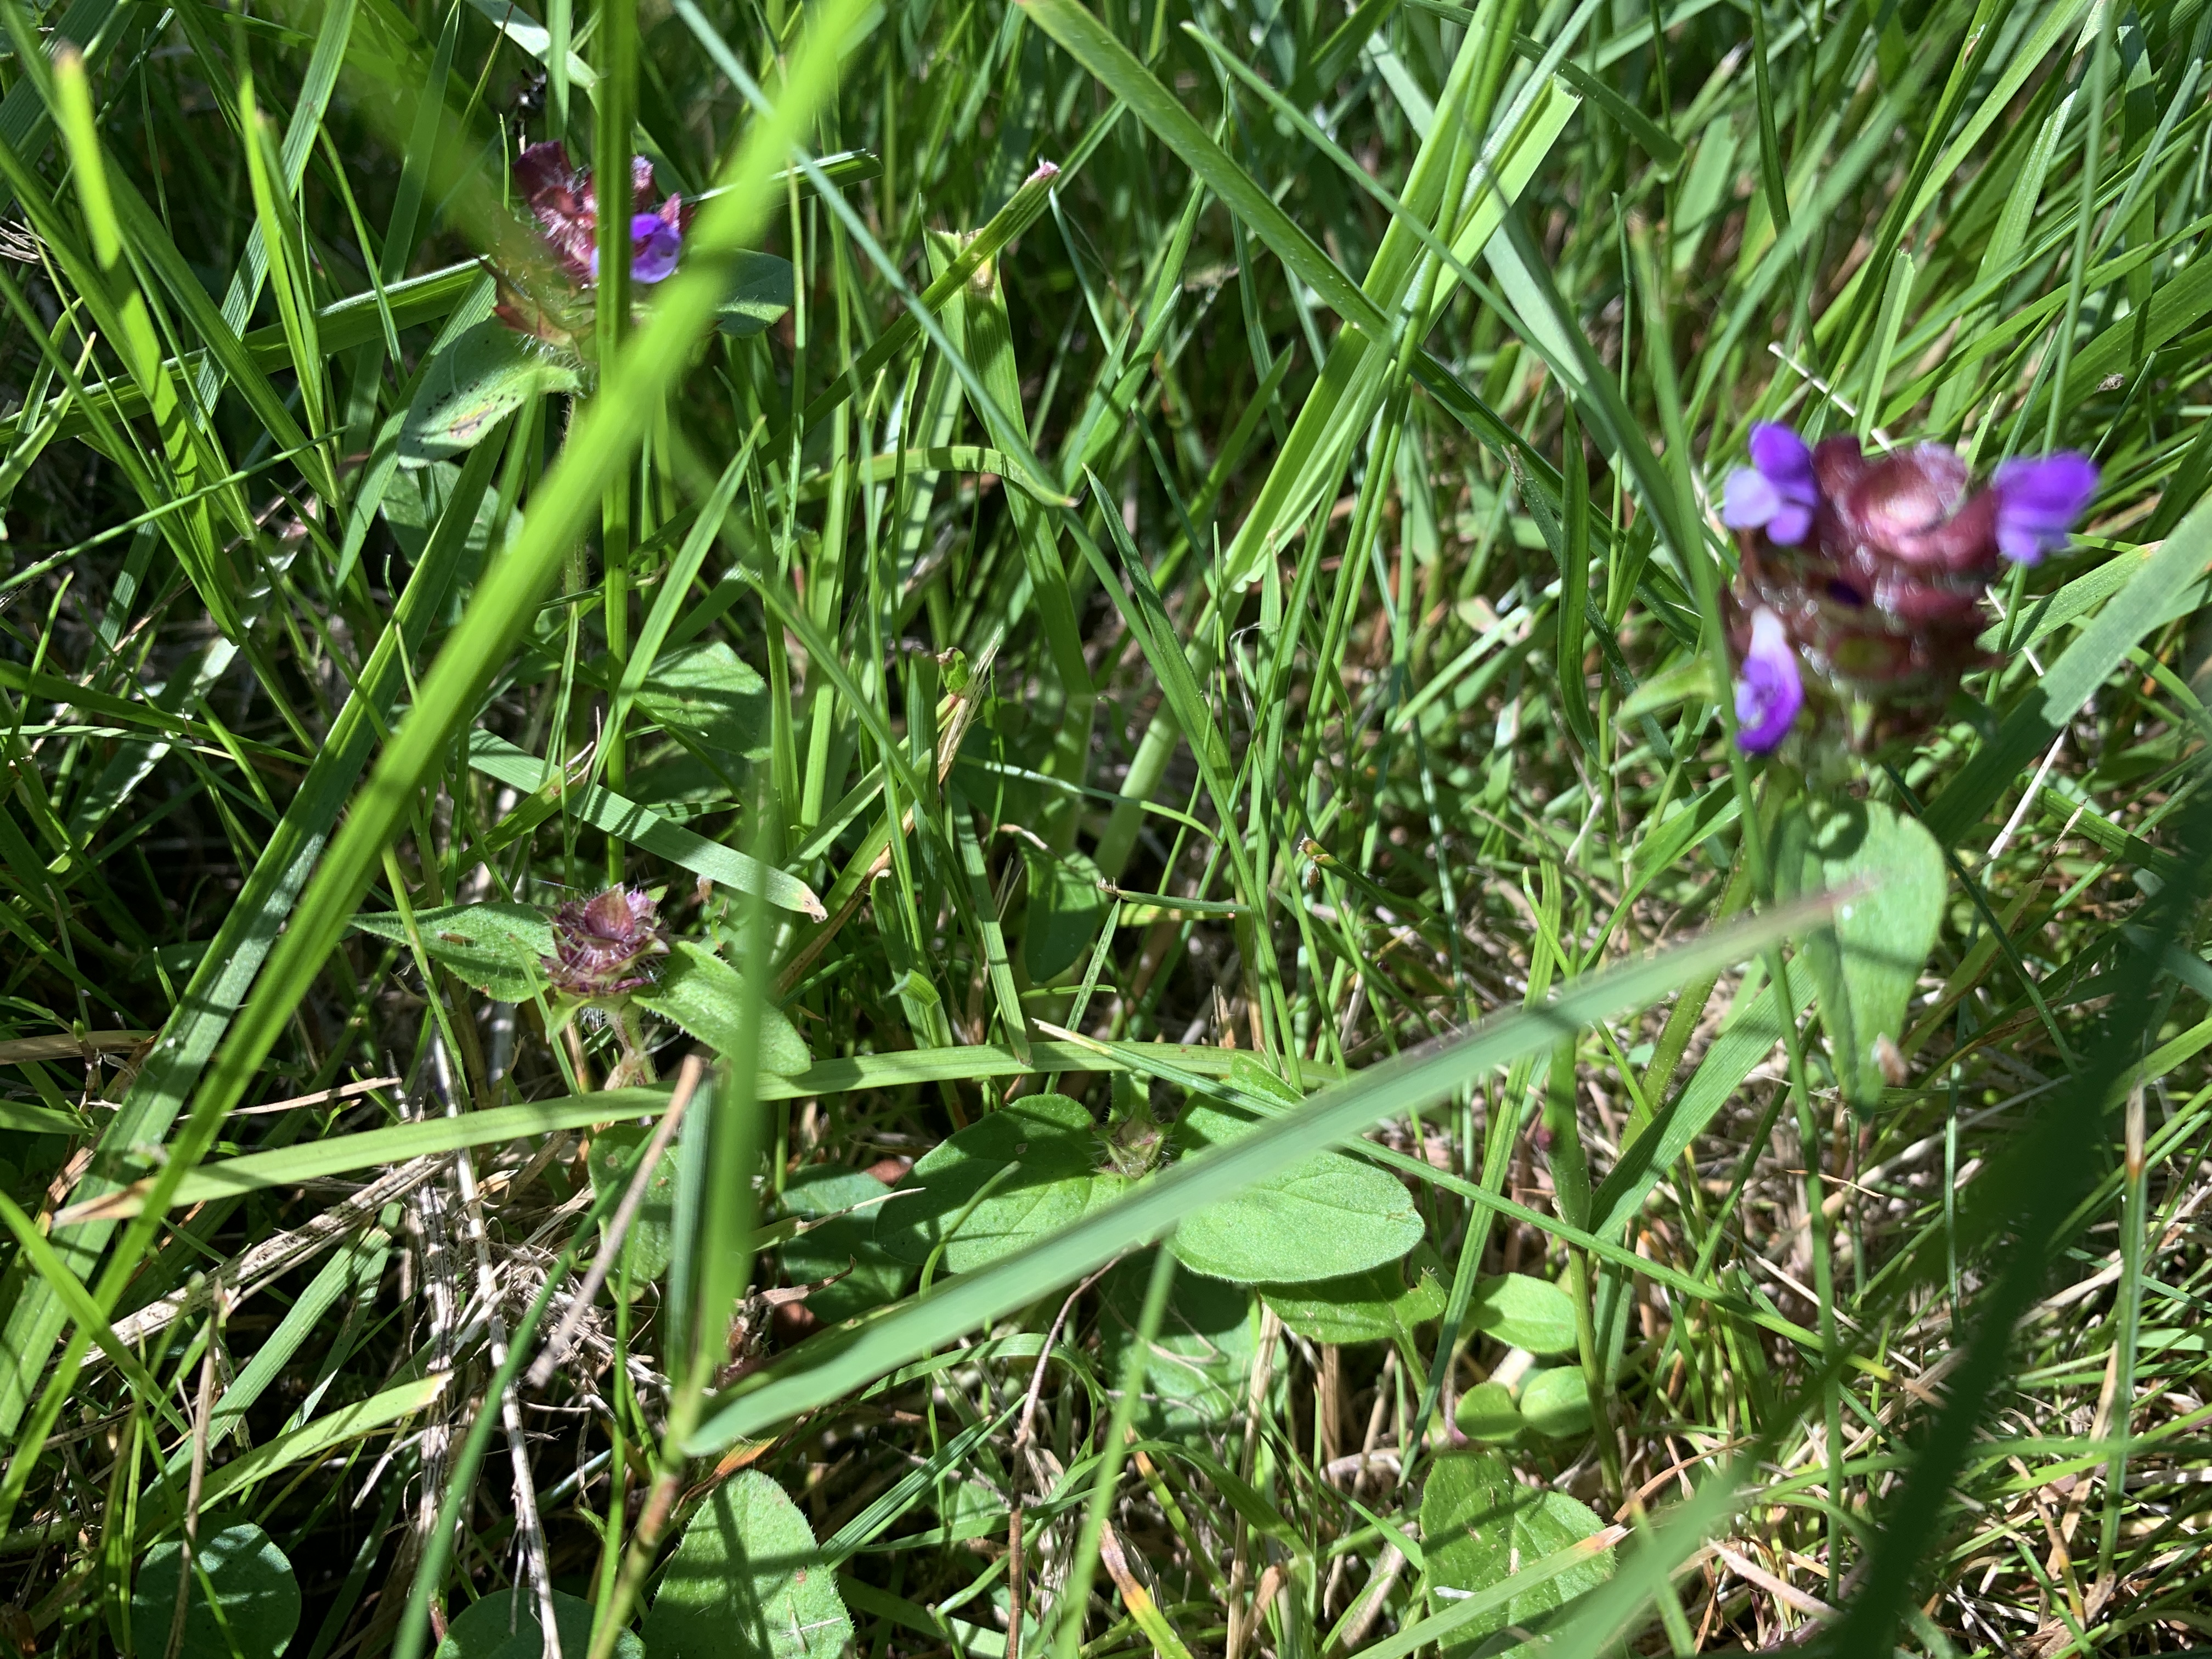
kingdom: Plantae
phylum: Tracheophyta
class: Magnoliopsida
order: Lamiales
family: Lamiaceae
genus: Prunella
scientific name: Prunella vulgaris
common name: Almindelig brunelle
